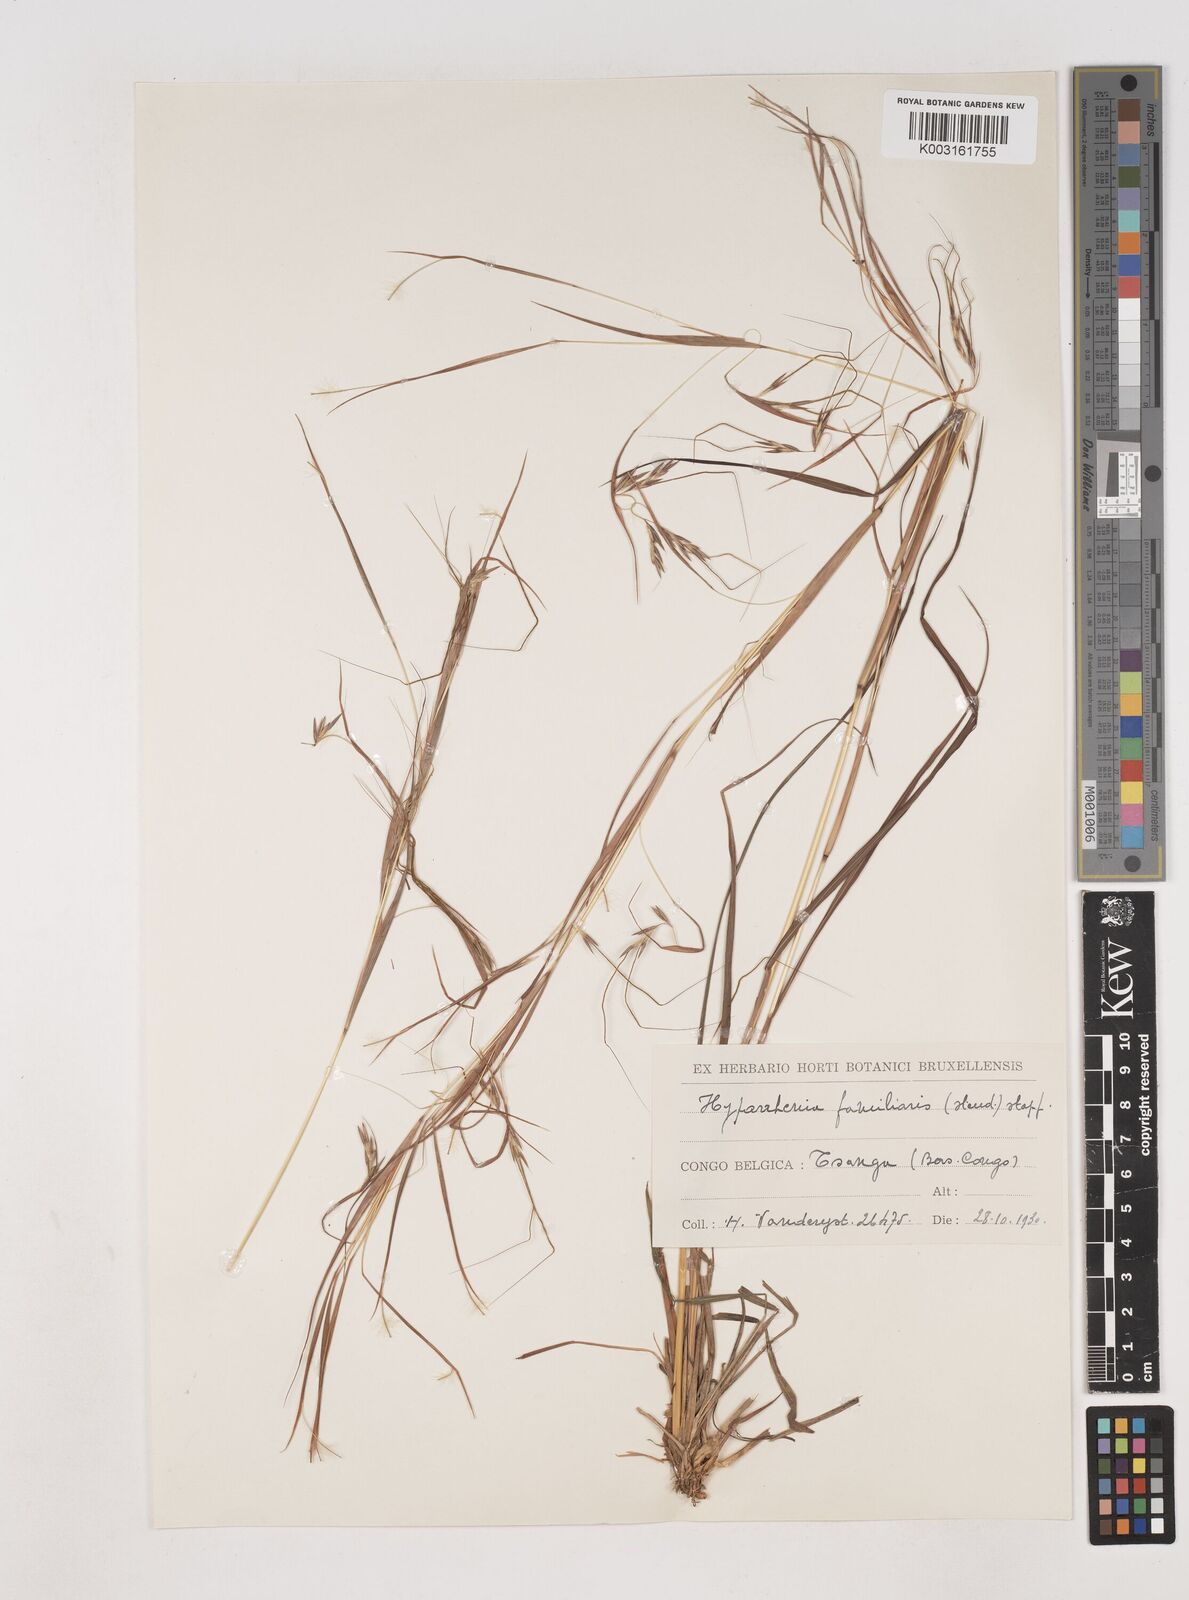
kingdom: Plantae
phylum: Tracheophyta
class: Liliopsida
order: Poales
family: Poaceae
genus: Hyparrhenia
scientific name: Hyparrhenia familiaris
